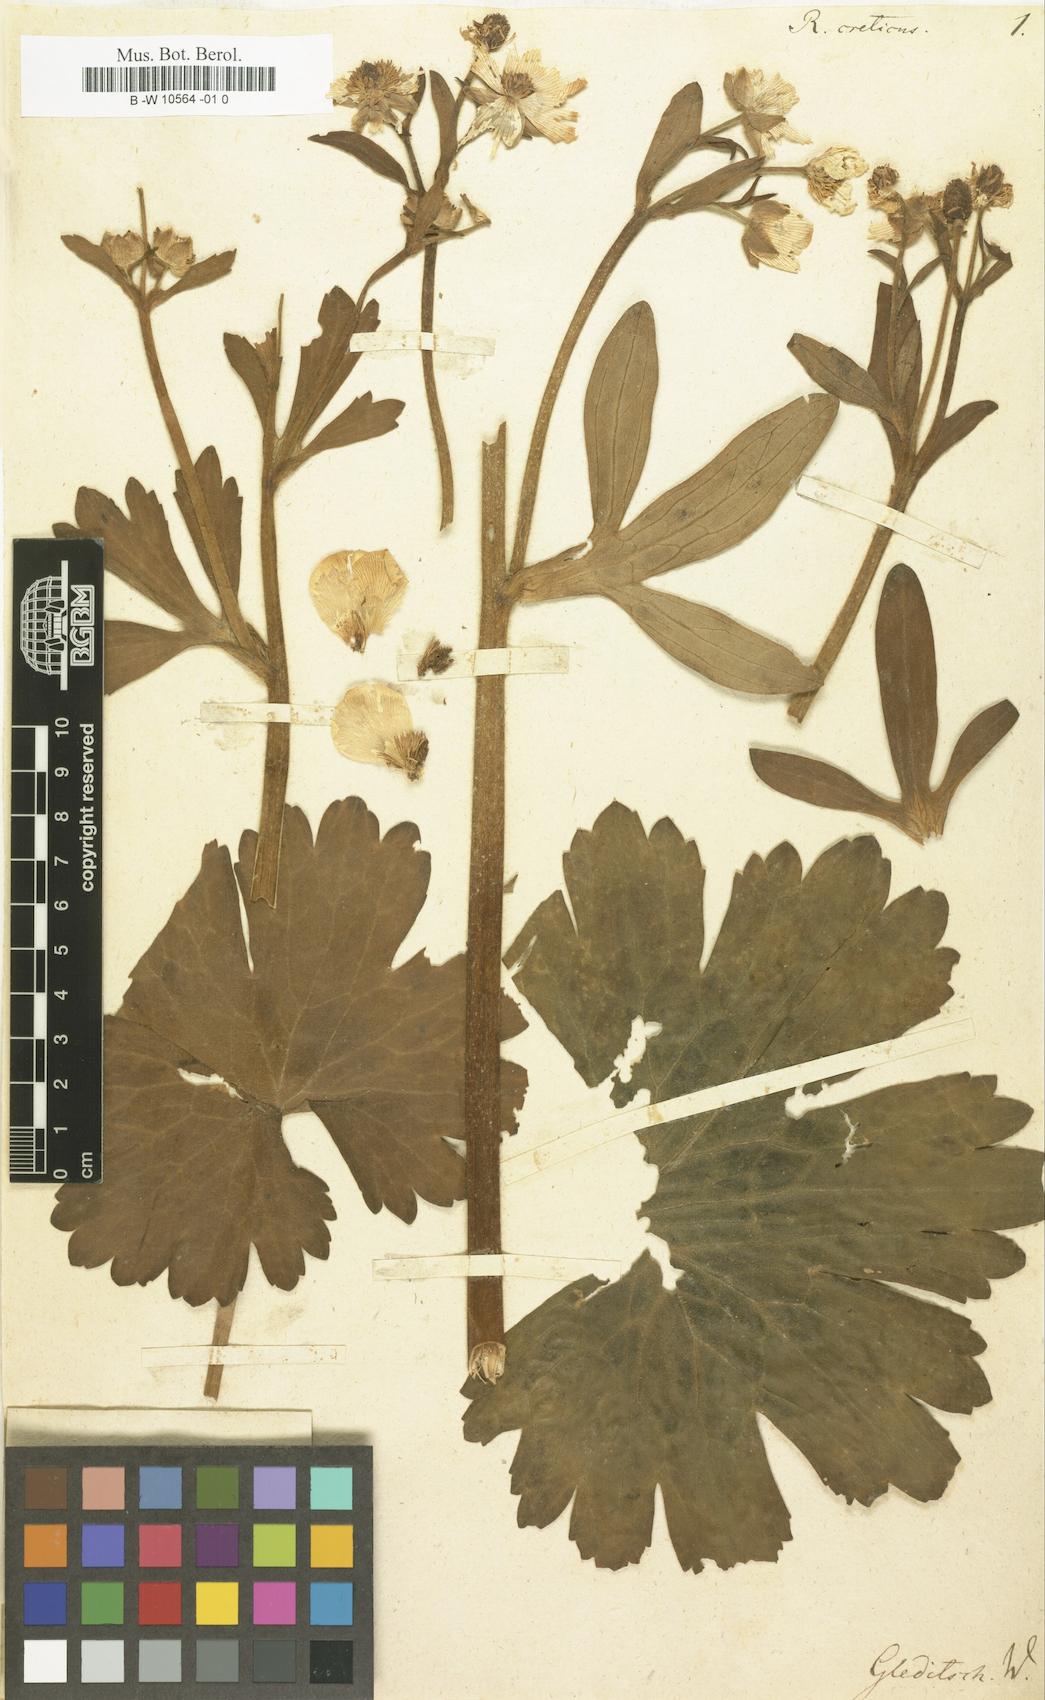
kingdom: Plantae
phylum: Tracheophyta
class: Magnoliopsida
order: Ranunculales
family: Ranunculaceae
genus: Ranunculus
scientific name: Ranunculus creticus
